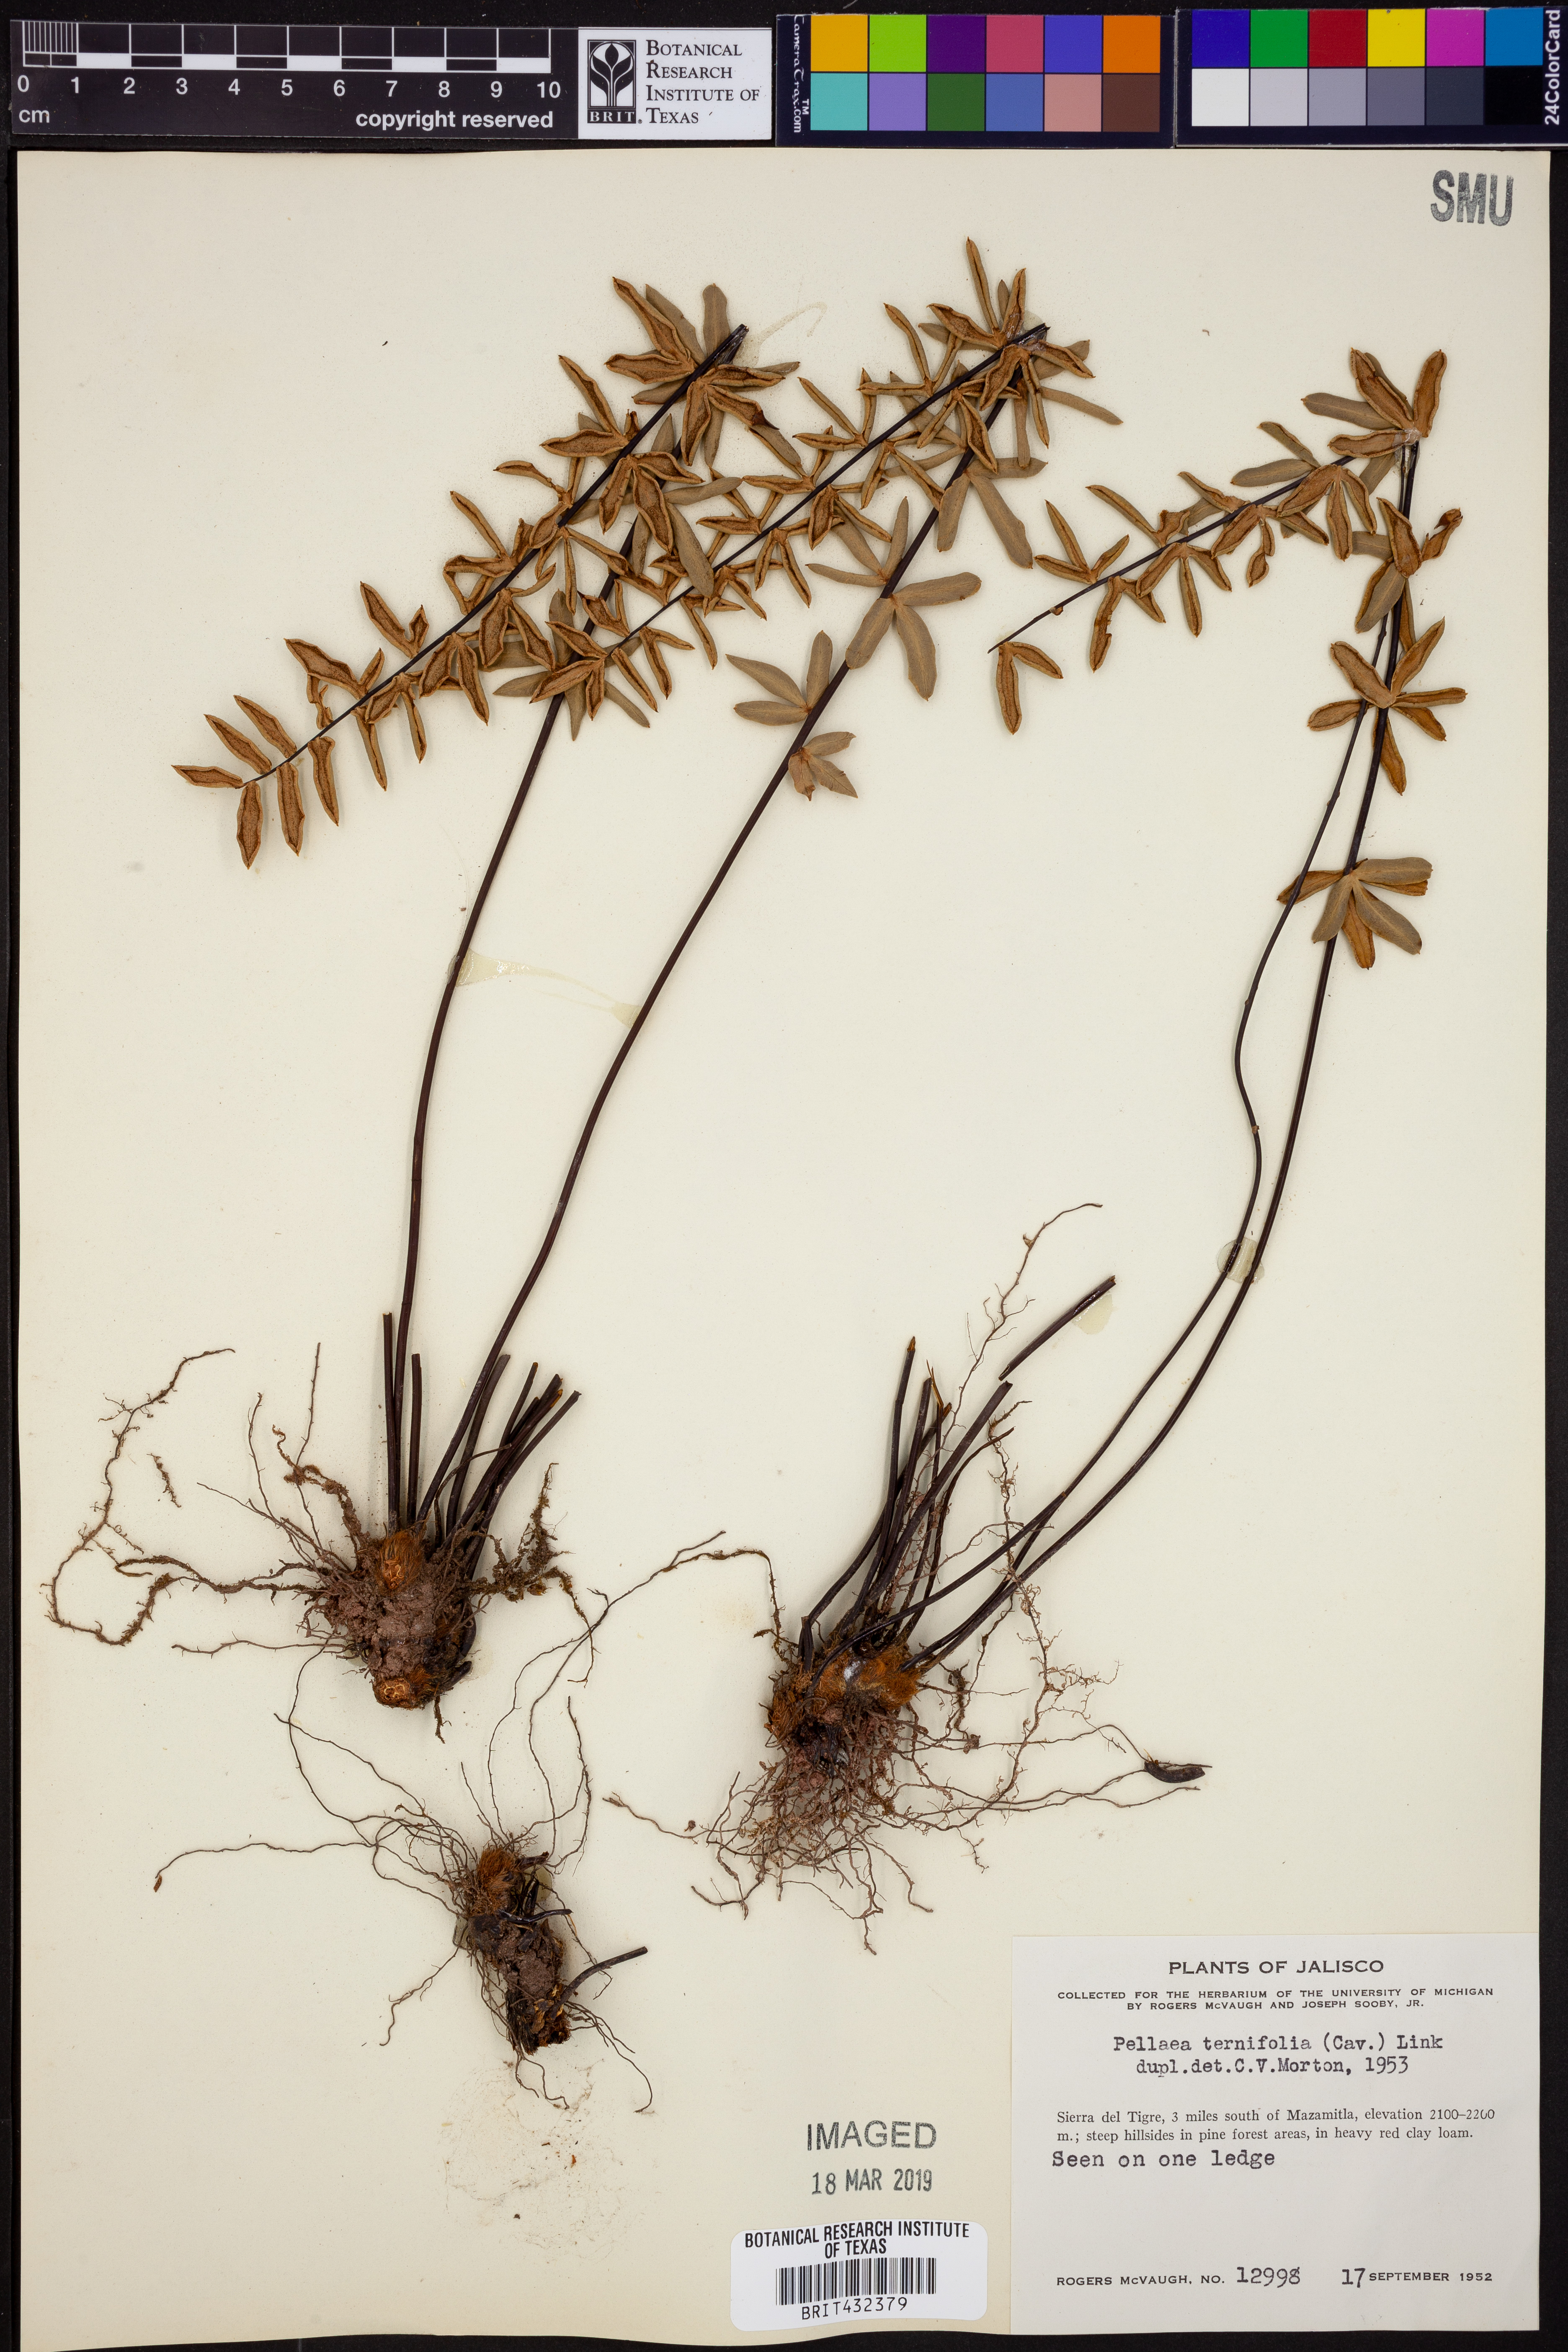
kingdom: Plantae
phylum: Tracheophyta
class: Polypodiopsida
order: Polypodiales
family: Pteridaceae
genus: Pellaea
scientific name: Pellaea ternifolia
